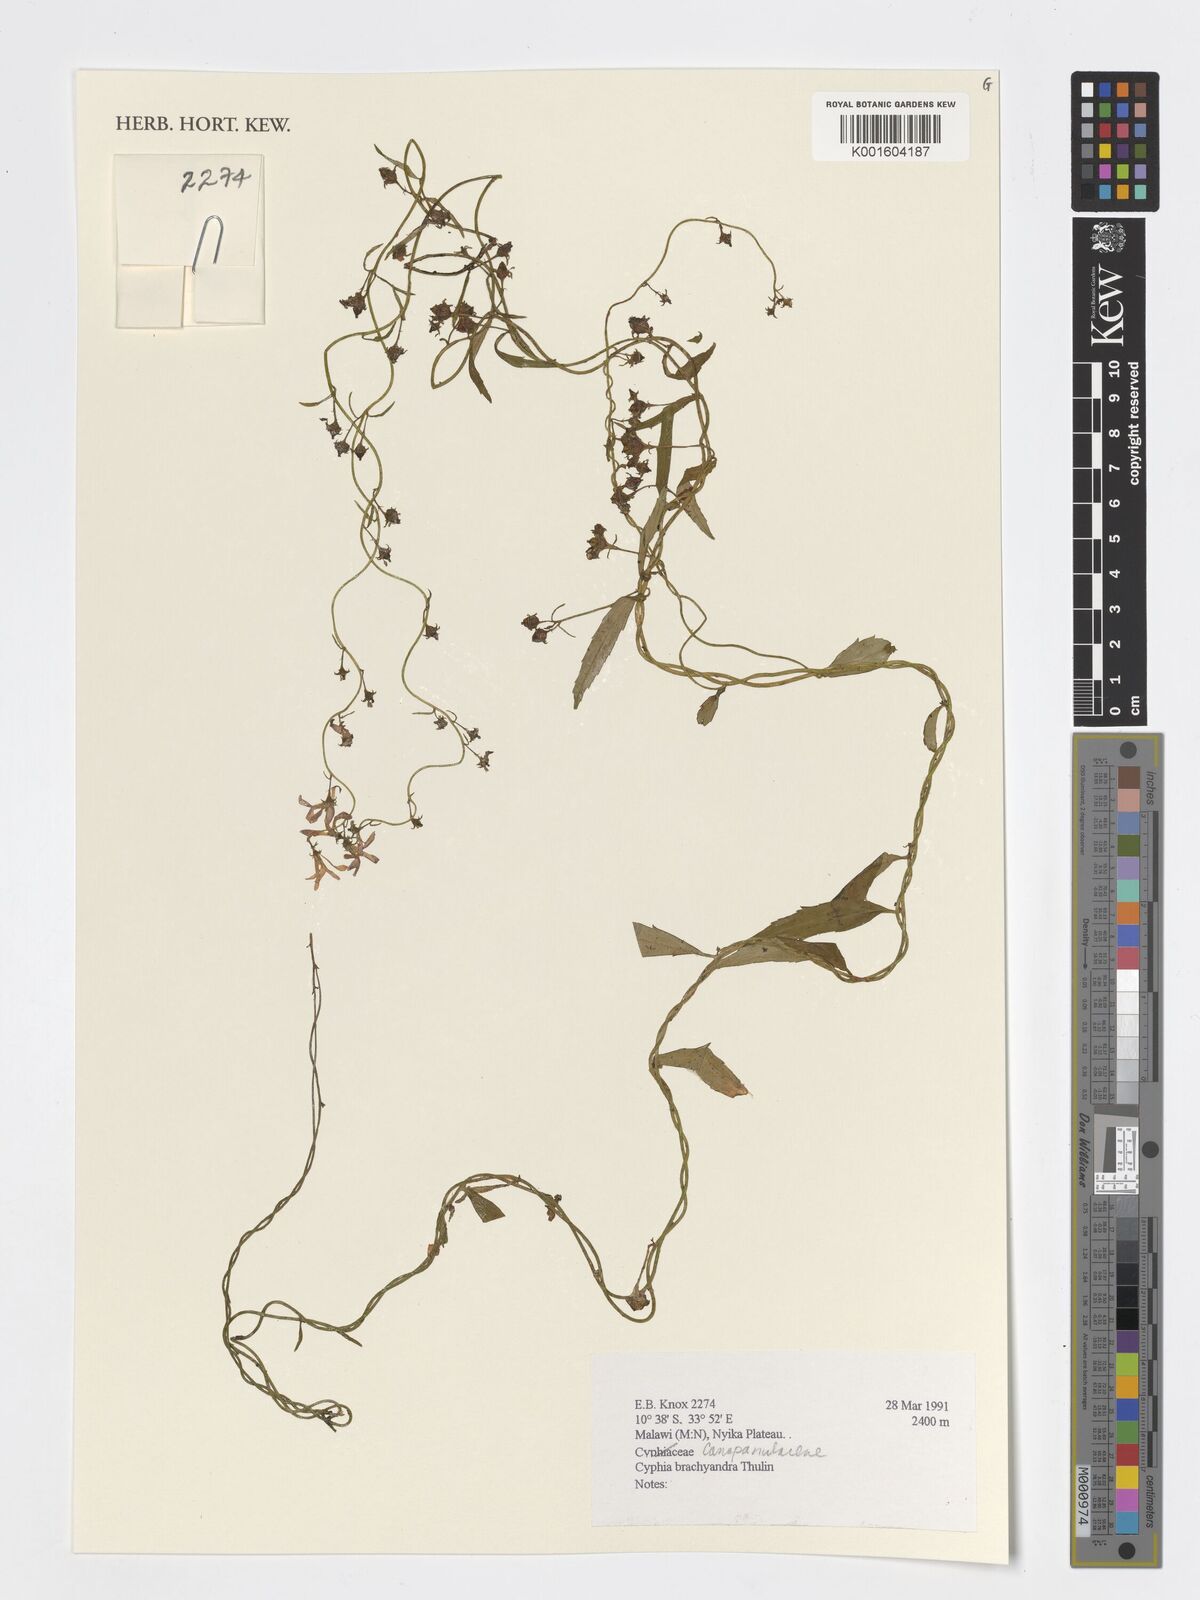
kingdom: Plantae
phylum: Tracheophyta
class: Magnoliopsida
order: Asterales
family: Campanulaceae
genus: Cyphia
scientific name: Cyphia brachyandra
